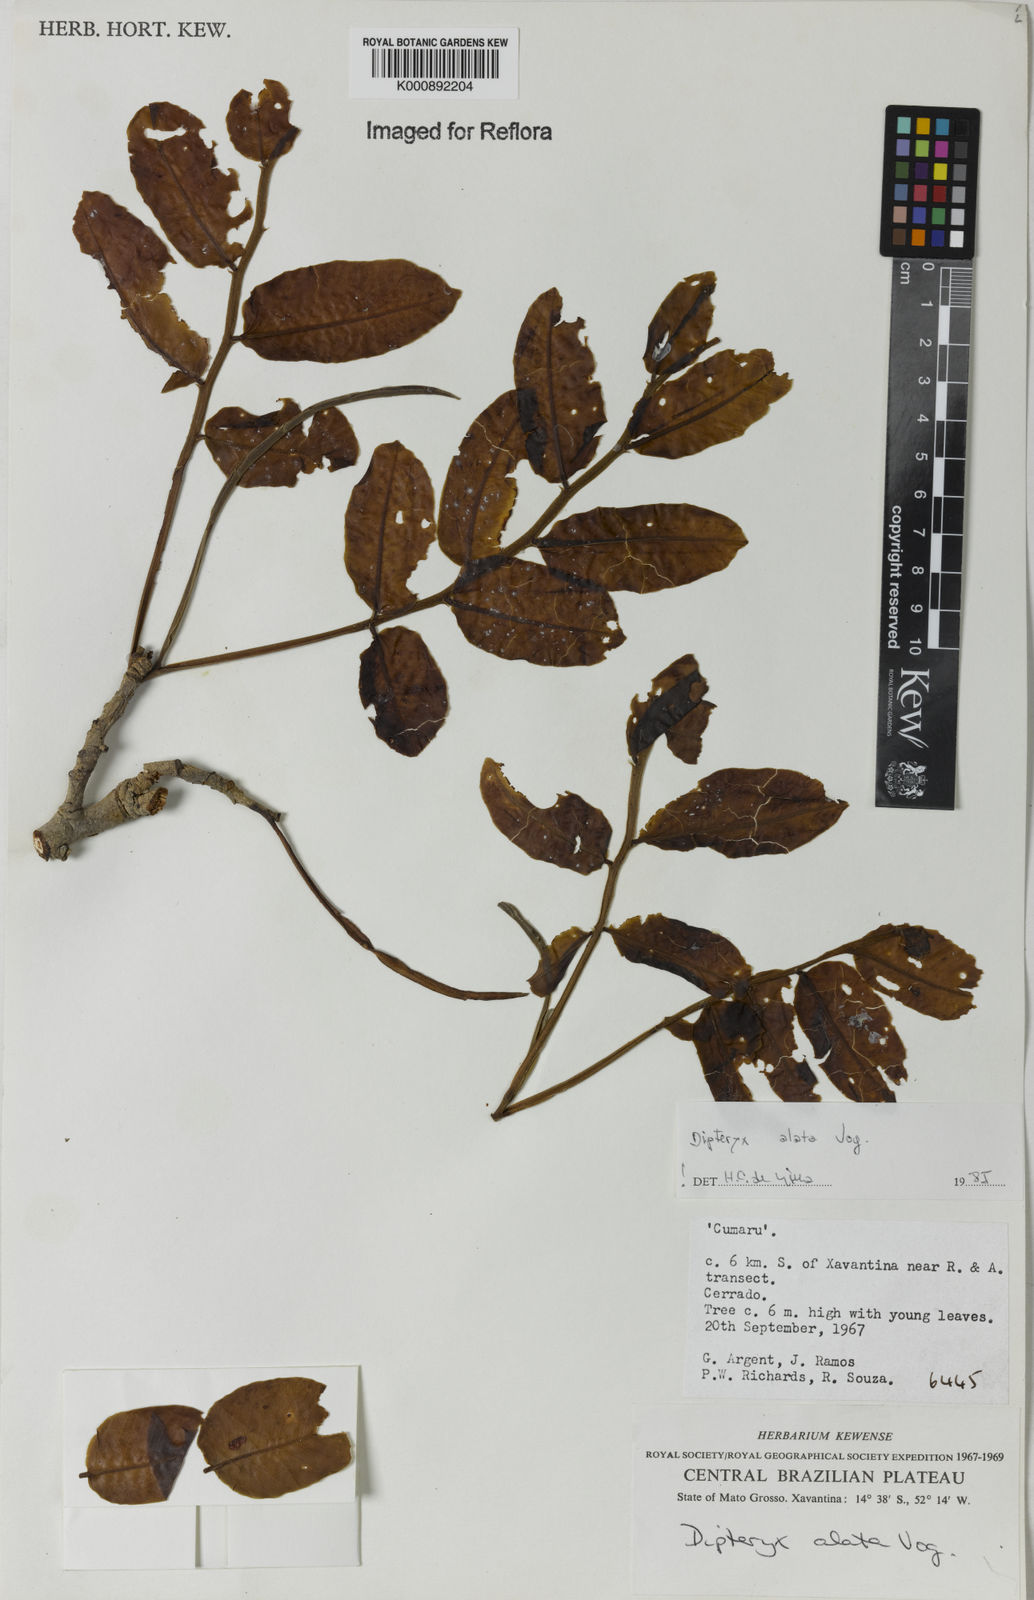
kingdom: Plantae
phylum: Tracheophyta
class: Magnoliopsida
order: Fabales
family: Fabaceae
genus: Dipteryx
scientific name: Dipteryx alata
